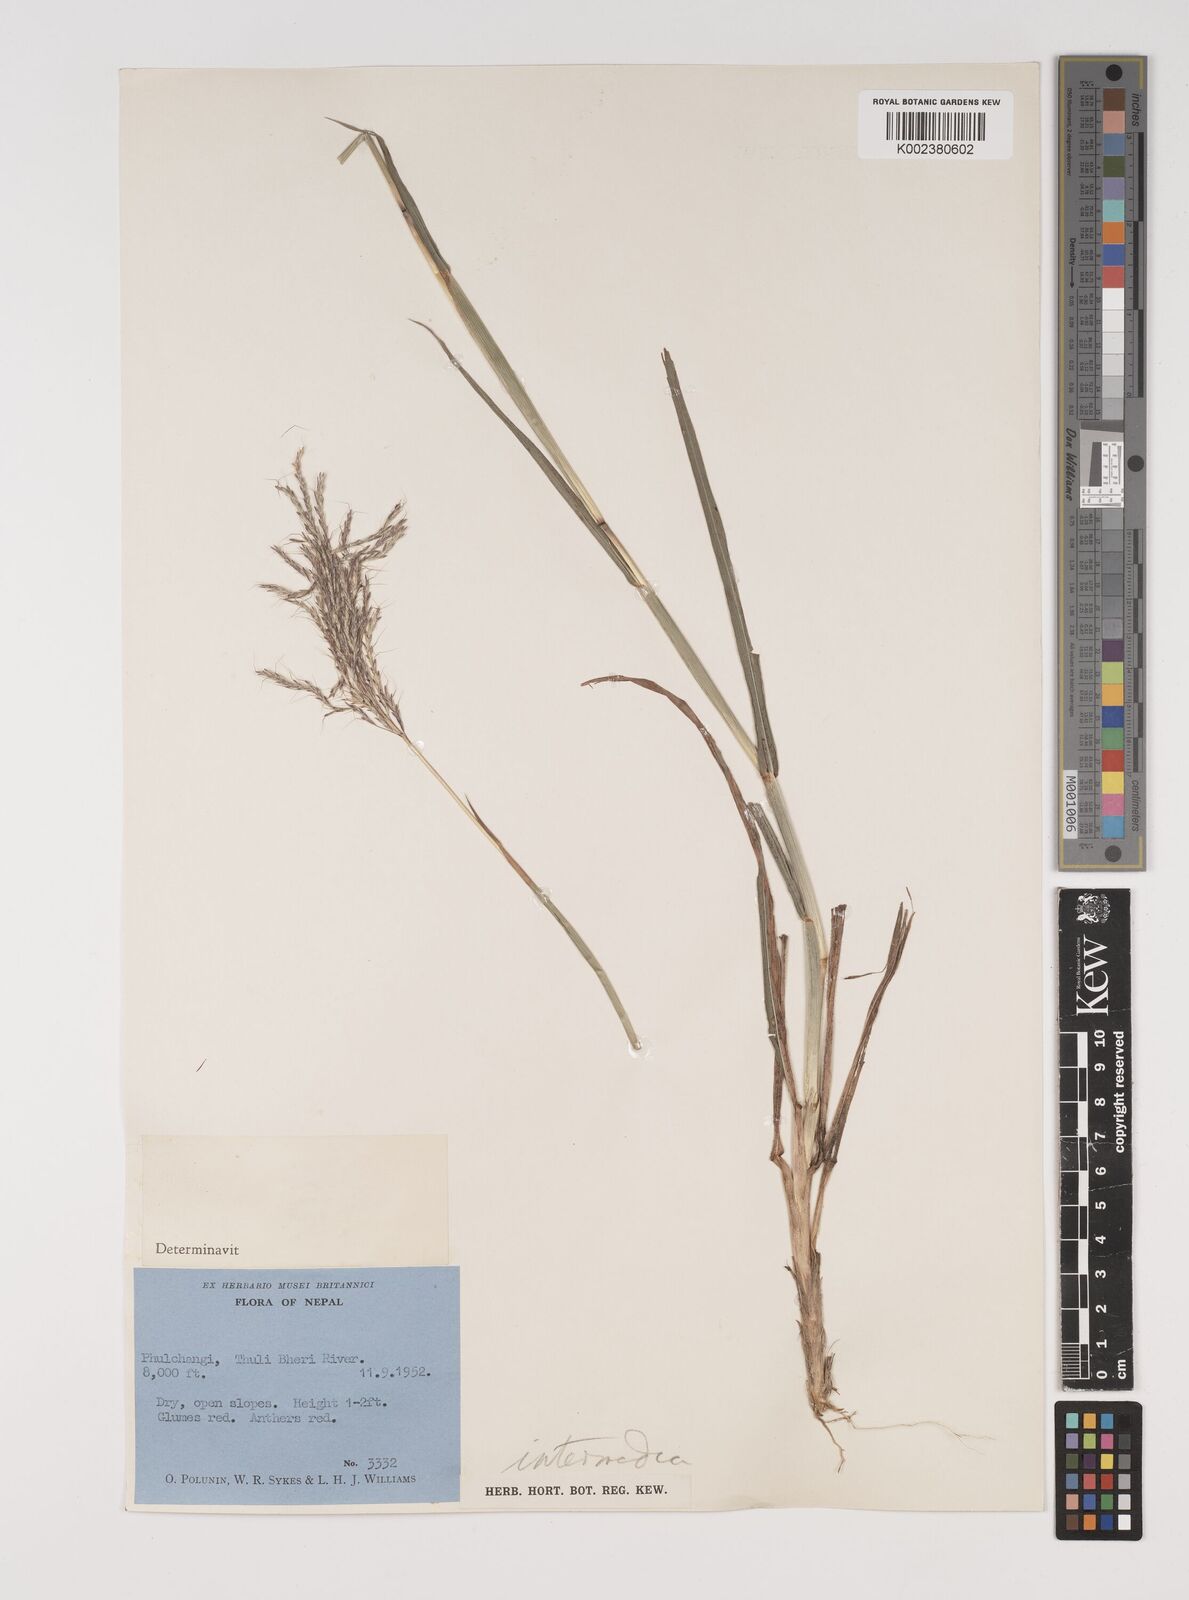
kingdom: Plantae
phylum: Tracheophyta
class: Liliopsida
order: Poales
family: Poaceae
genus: Bothriochloa
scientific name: Bothriochloa bladhii
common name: Caucasian bluestem
